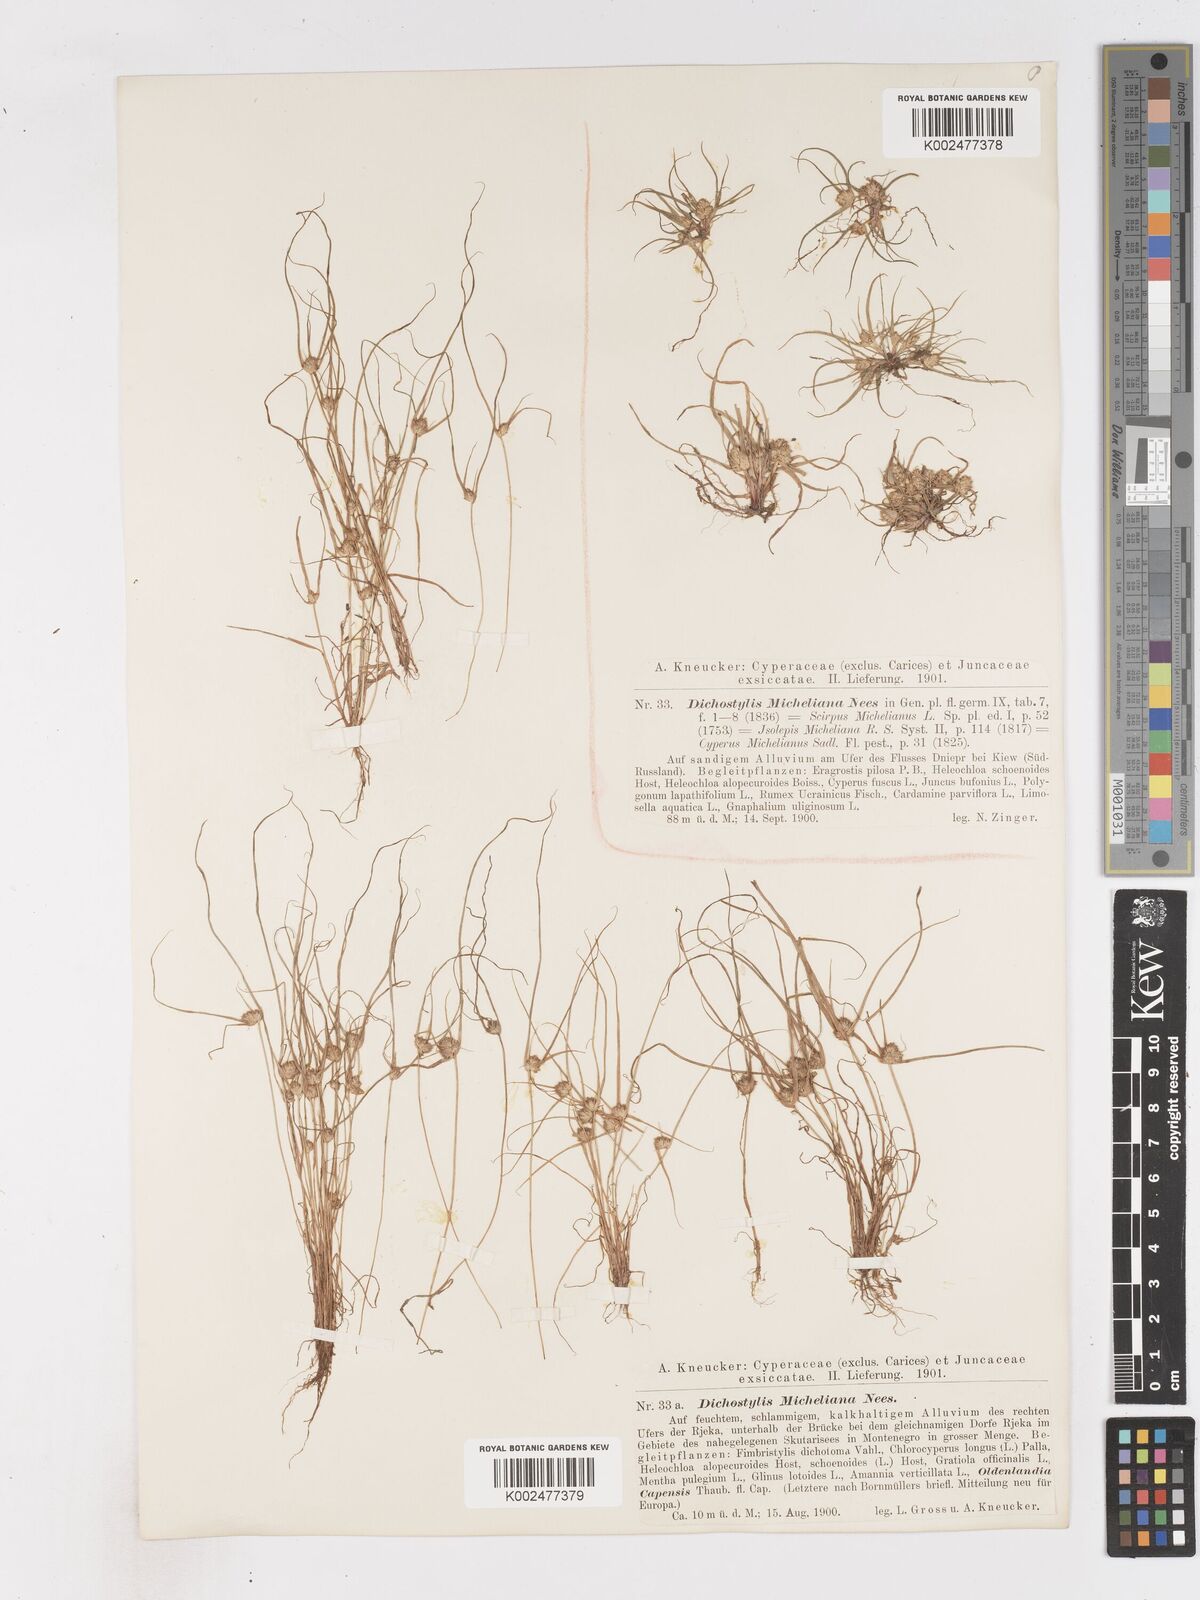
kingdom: Plantae
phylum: Tracheophyta
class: Liliopsida
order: Poales
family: Cyperaceae
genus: Cyperus
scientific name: Cyperus michelianus
